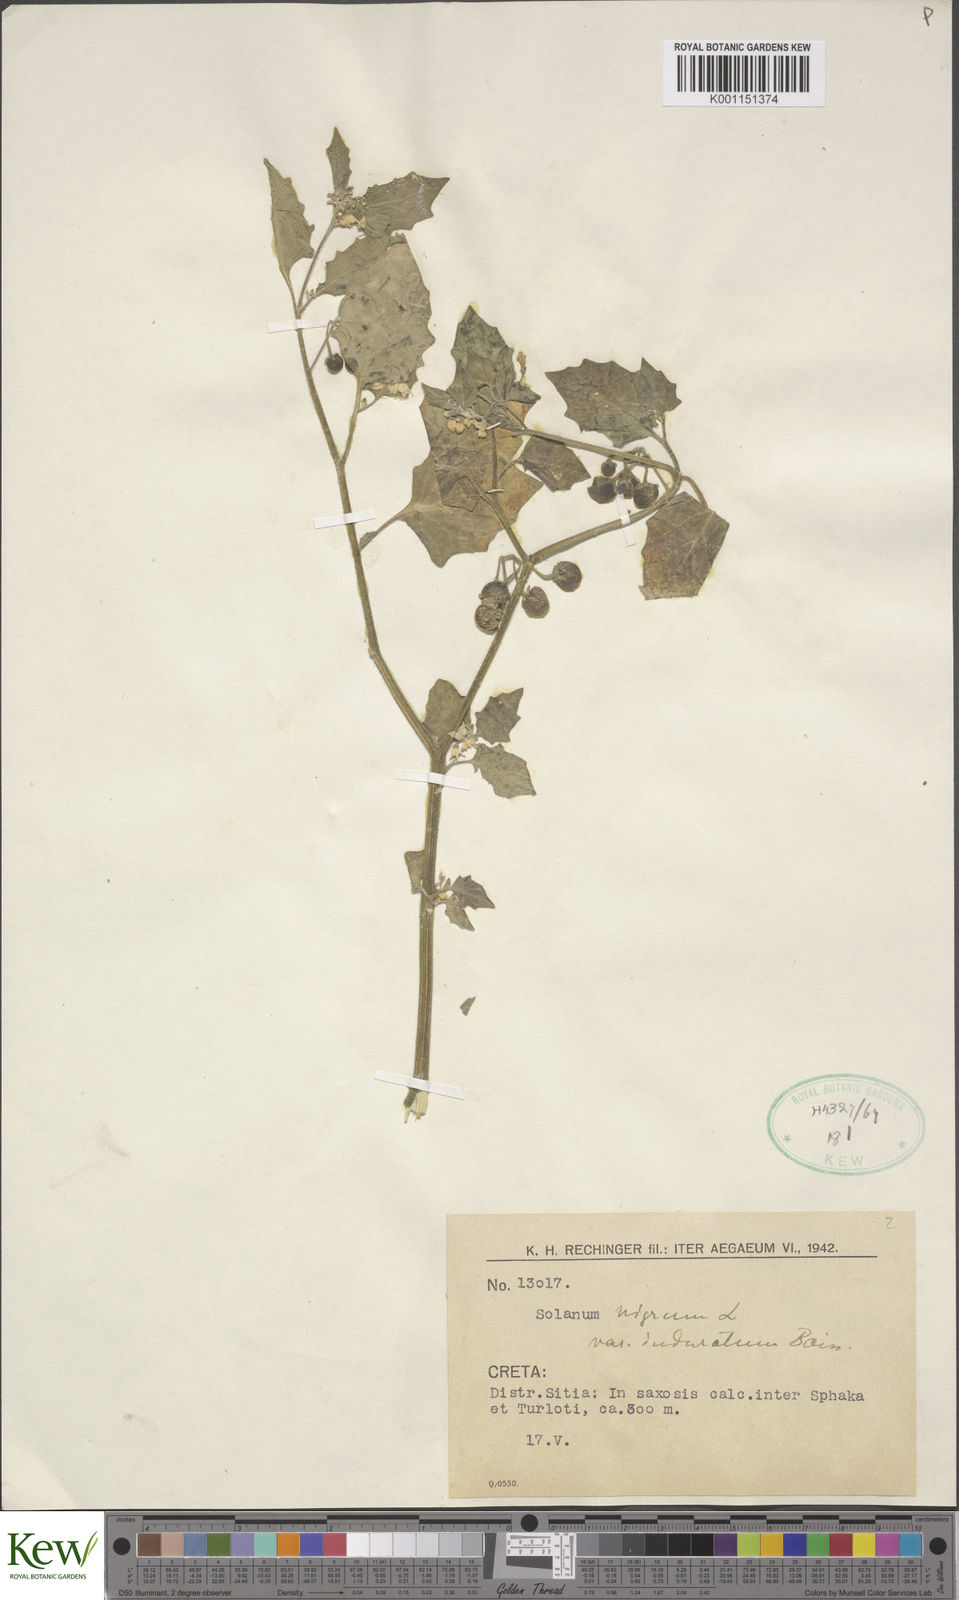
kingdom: Plantae
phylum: Tracheophyta
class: Magnoliopsida
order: Solanales
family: Solanaceae
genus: Solanum
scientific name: Solanum nigrum
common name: Black nightshade
